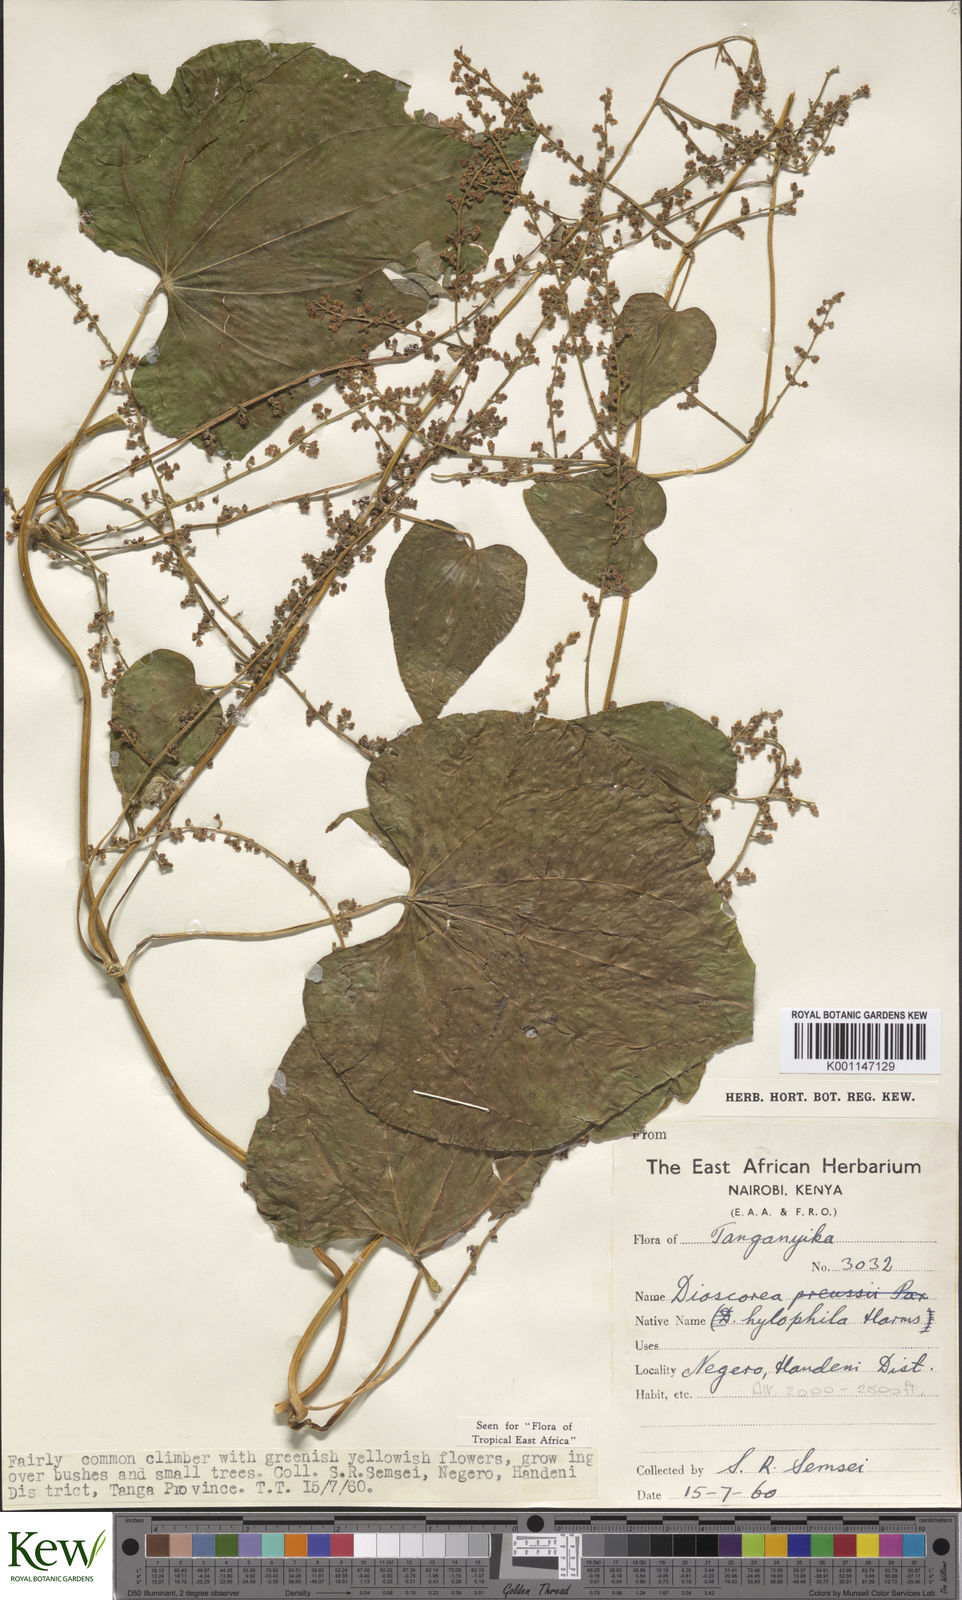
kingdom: Plantae
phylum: Tracheophyta
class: Liliopsida
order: Dioscoreales
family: Dioscoreaceae
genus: Dioscorea
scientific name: Dioscorea
